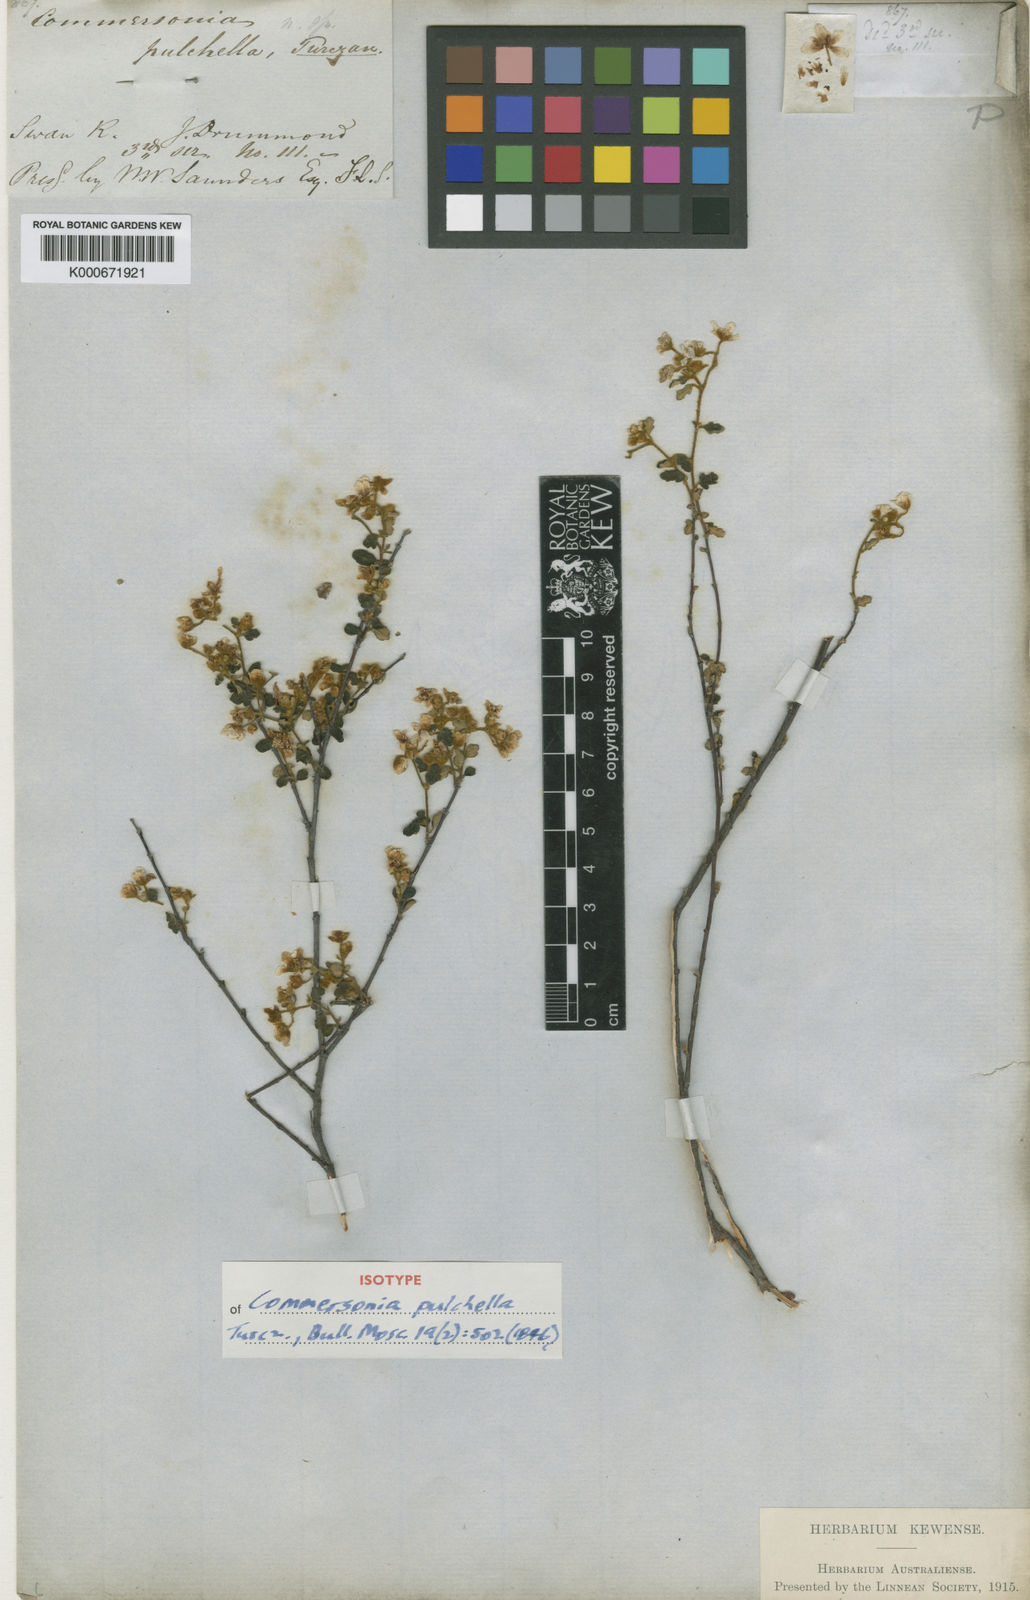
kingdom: Plantae
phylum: Tracheophyta
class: Magnoliopsida
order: Malvales
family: Malvaceae
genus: Androcalva
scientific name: Androcalva pulchella
